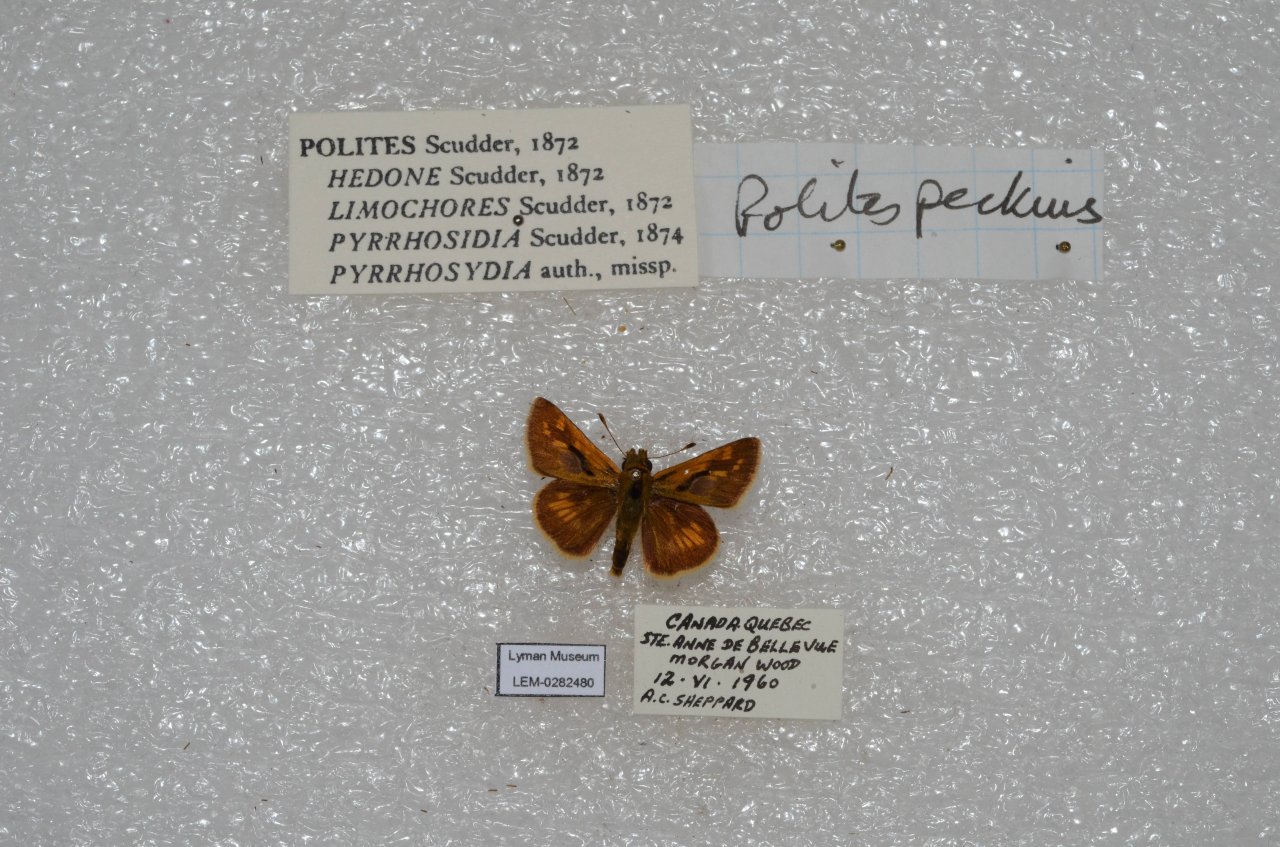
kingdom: Animalia
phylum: Arthropoda
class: Insecta
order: Lepidoptera
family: Hesperiidae
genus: Polites
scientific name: Polites coras
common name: Peck's Skipper
